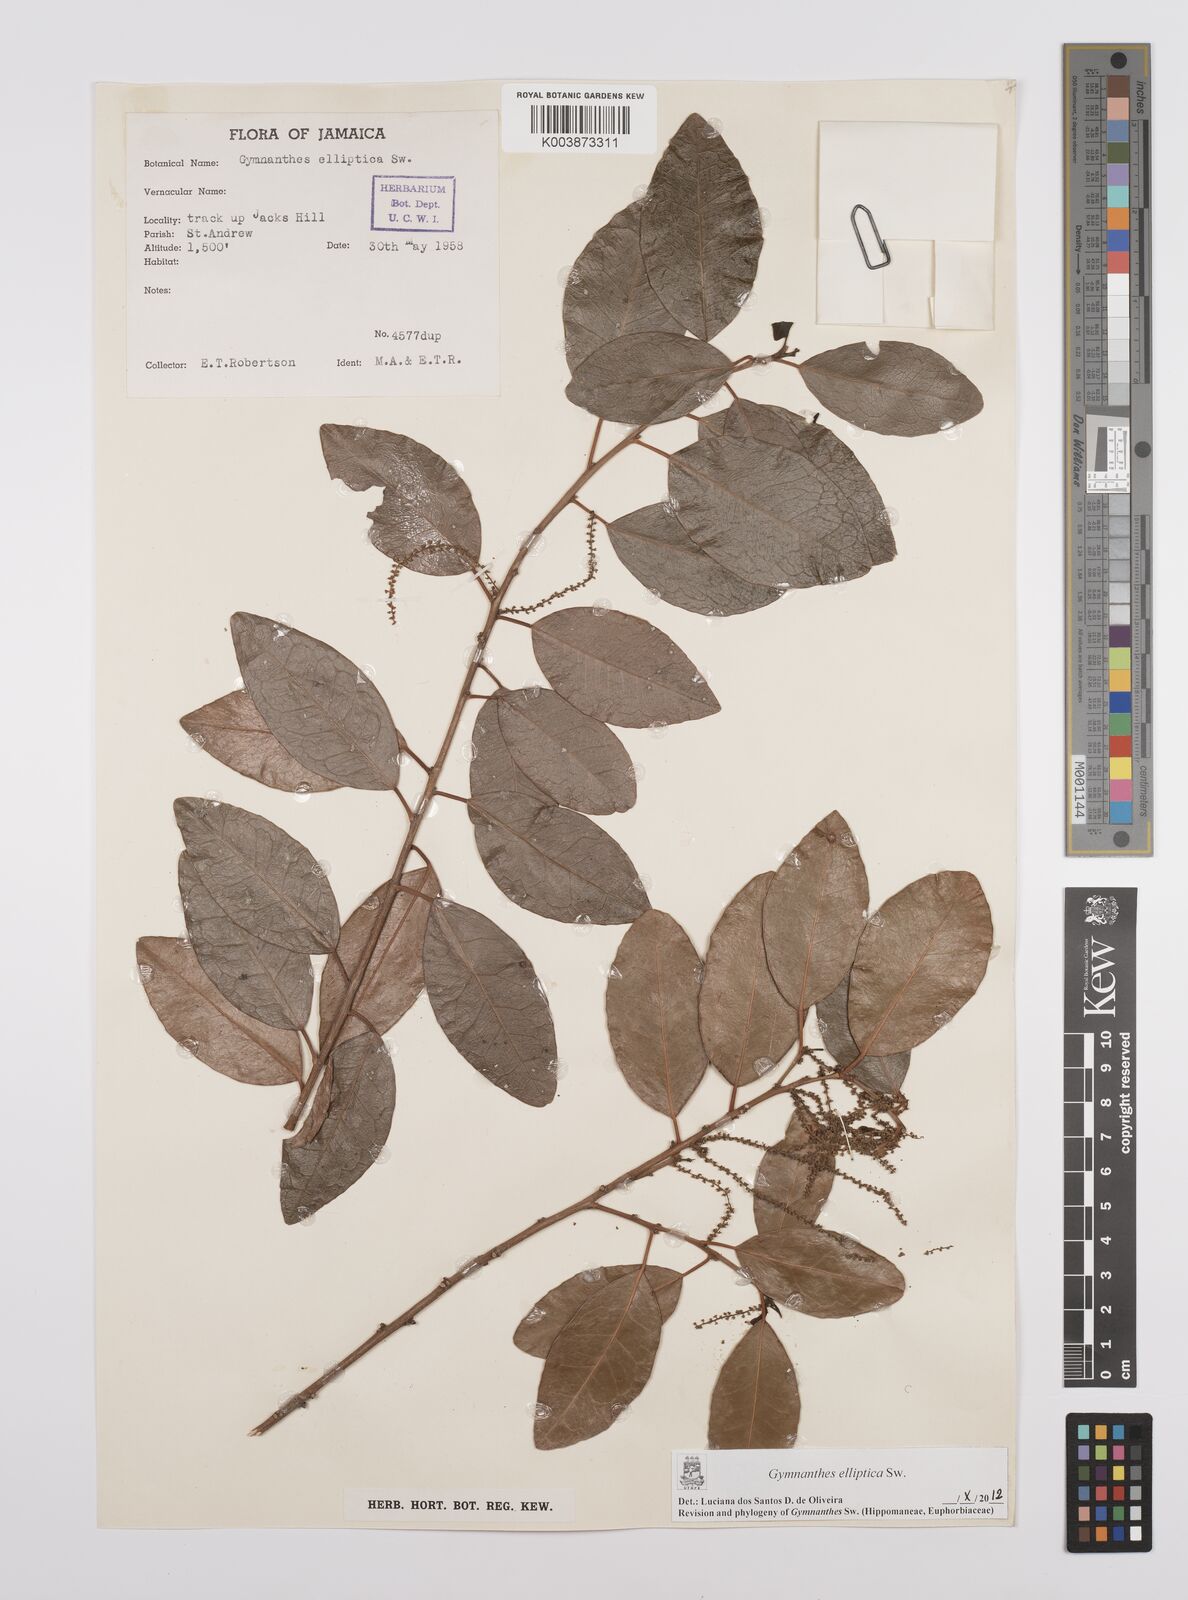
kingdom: Plantae
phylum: Tracheophyta
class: Magnoliopsida
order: Malpighiales
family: Euphorbiaceae
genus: Dendrocousinsia
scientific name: Dendrocousinsia elliptica
